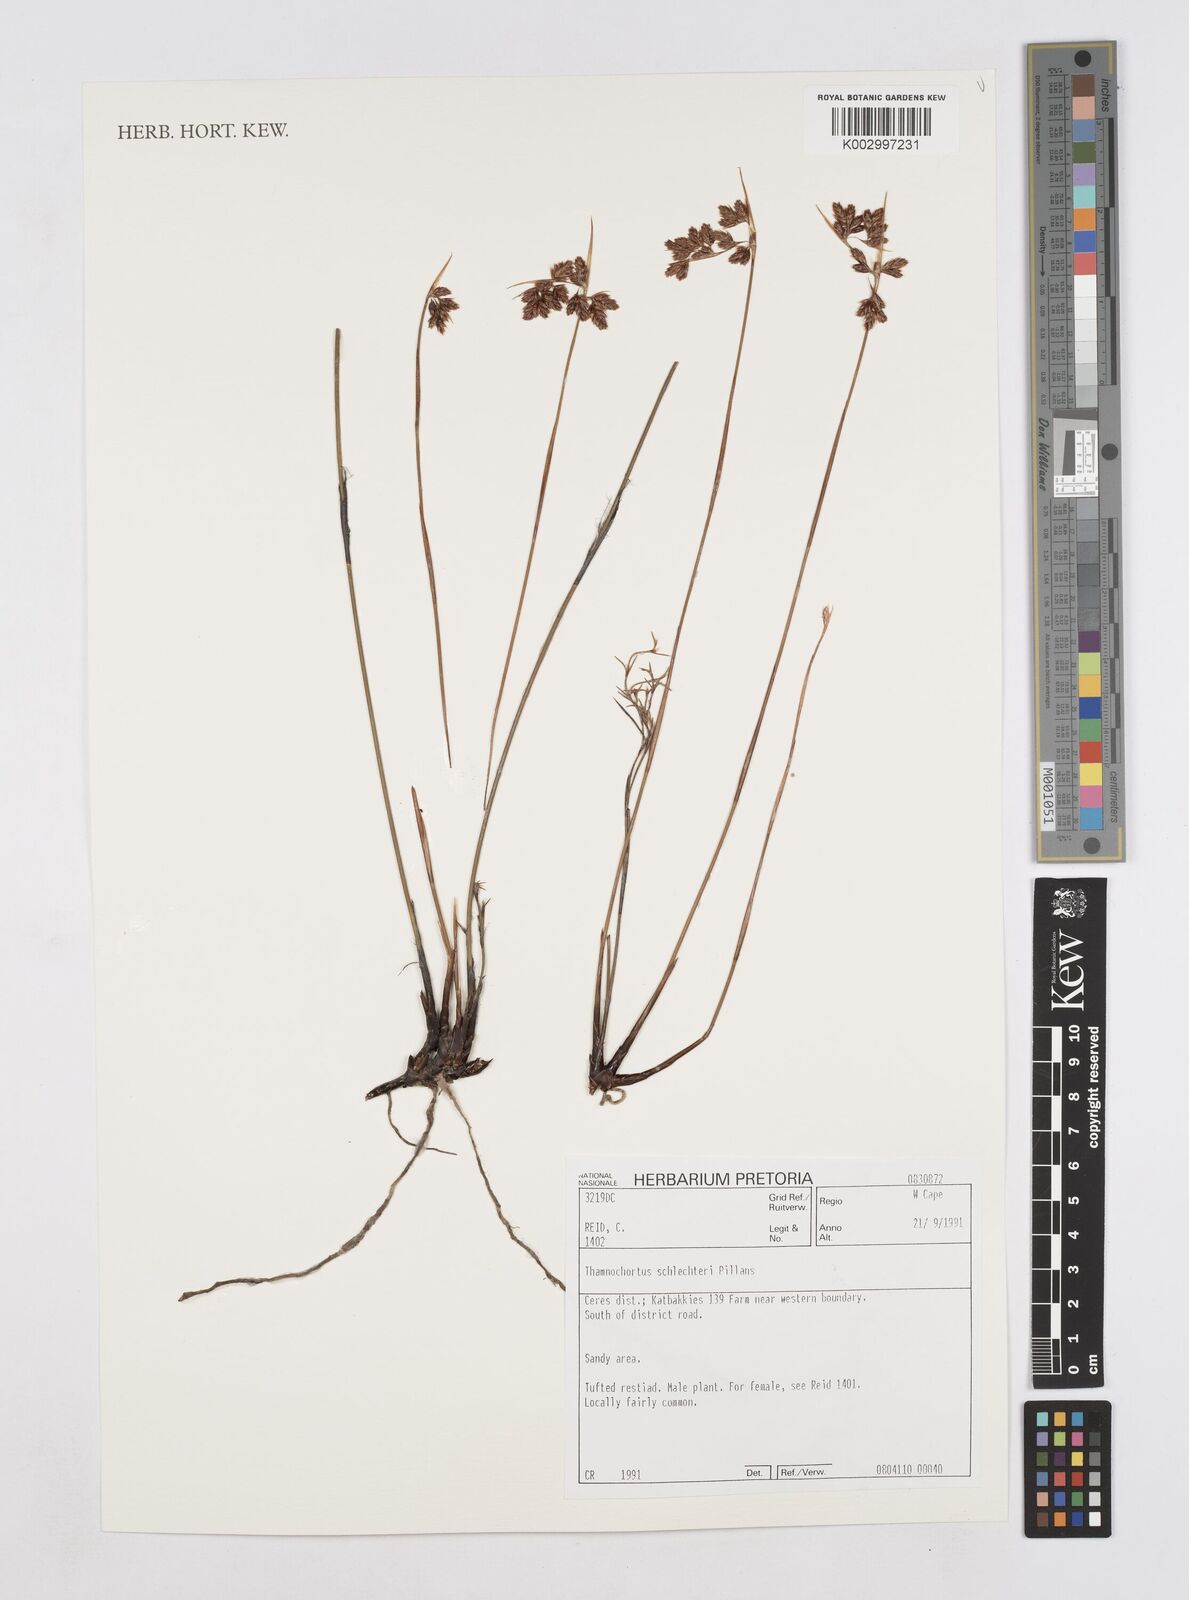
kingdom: Plantae
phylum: Tracheophyta
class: Liliopsida
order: Poales
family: Restionaceae
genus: Thamnochortus
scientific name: Thamnochortus schlechteri
